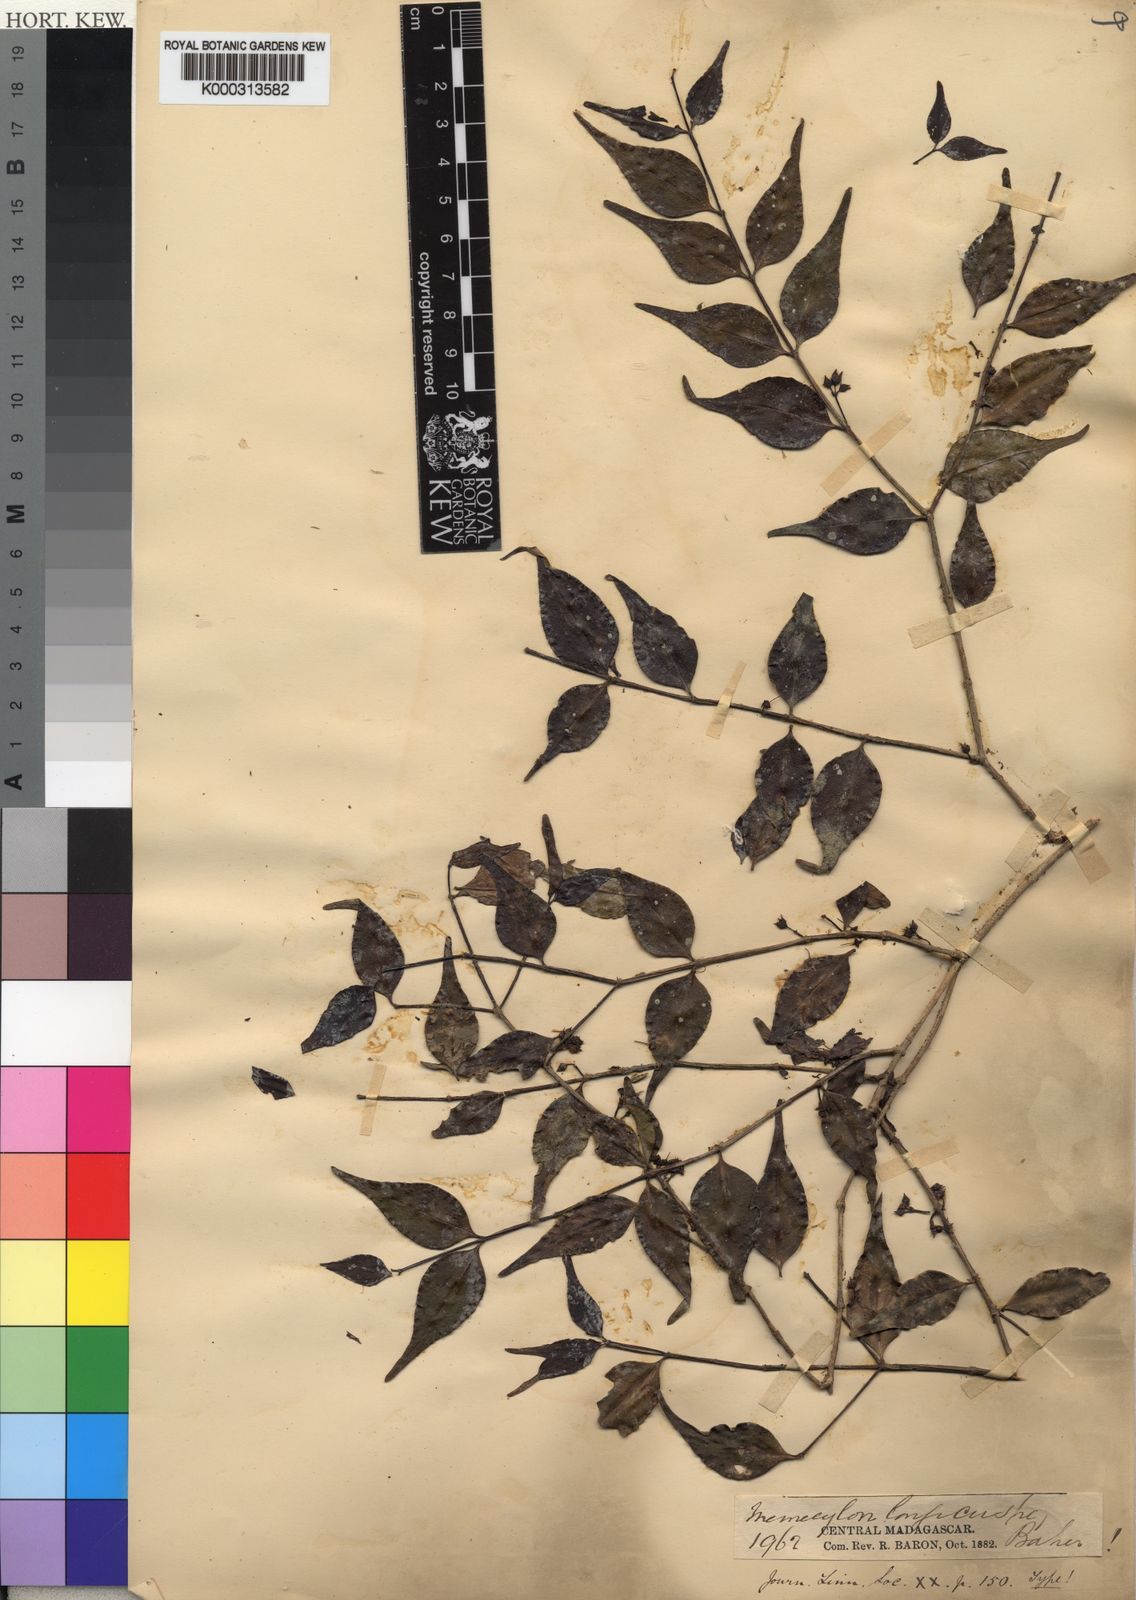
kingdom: Plantae
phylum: Tracheophyta
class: Magnoliopsida
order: Myrtales
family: Melastomataceae
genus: Memecylon
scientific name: Memecylon longicuspe
